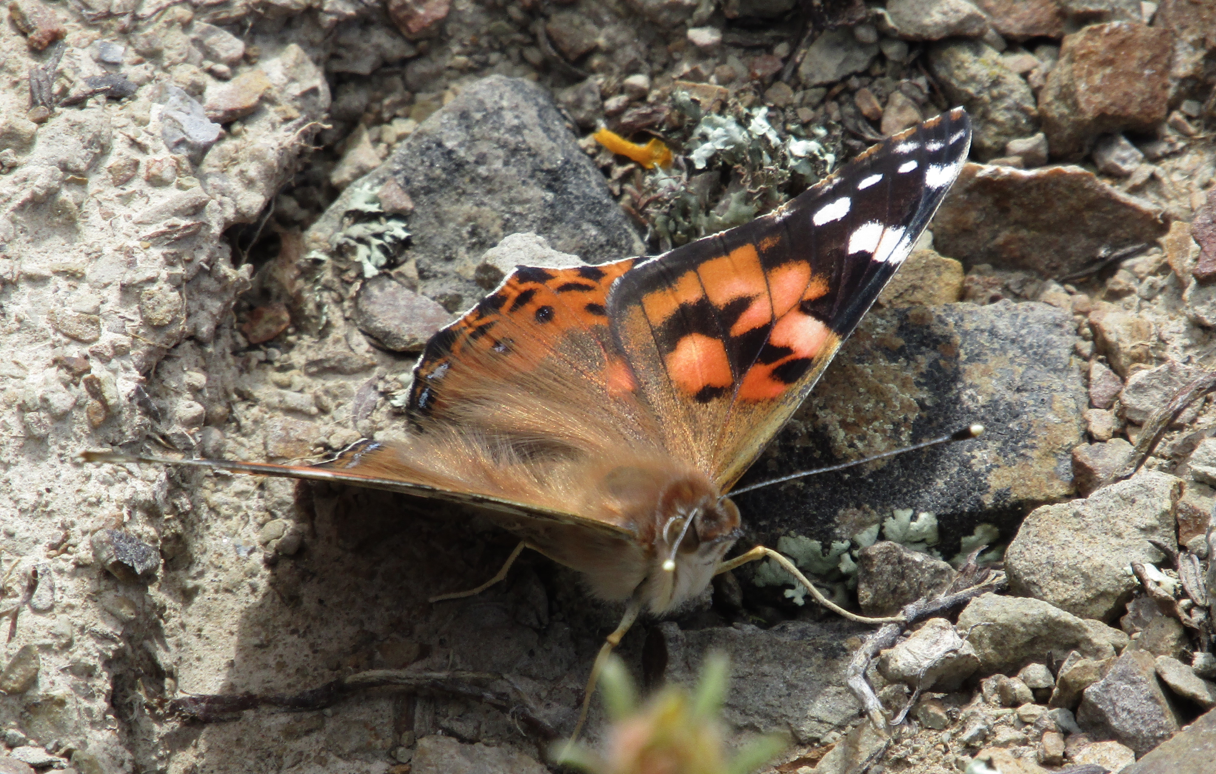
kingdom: Animalia
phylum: Arthropoda
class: Insecta
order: Lepidoptera
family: Nymphalidae
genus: Vanessa
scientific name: Vanessa cardui
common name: Painted Lady
